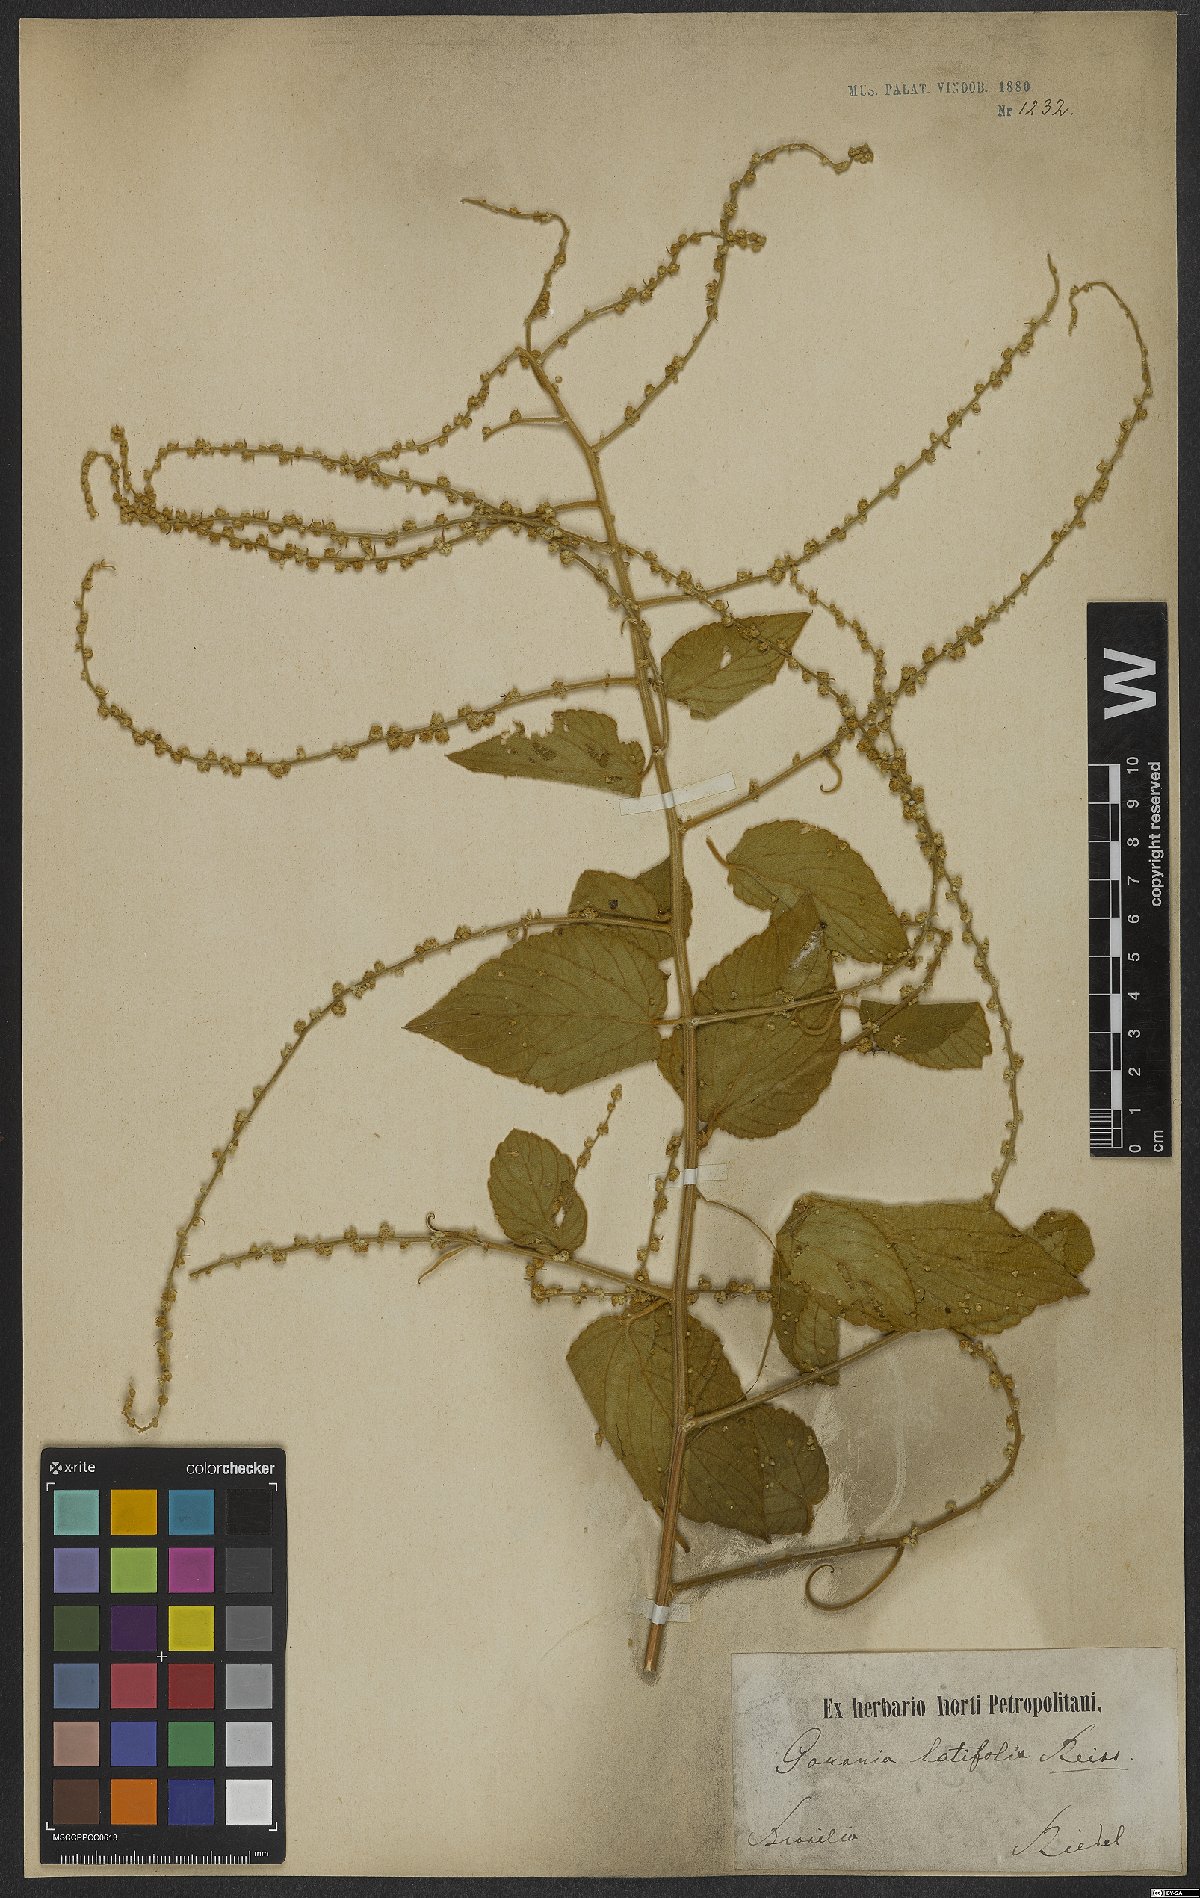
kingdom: Plantae
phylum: Tracheophyta
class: Magnoliopsida
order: Rosales
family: Rhamnaceae
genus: Gouania
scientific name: Gouania latifolia
